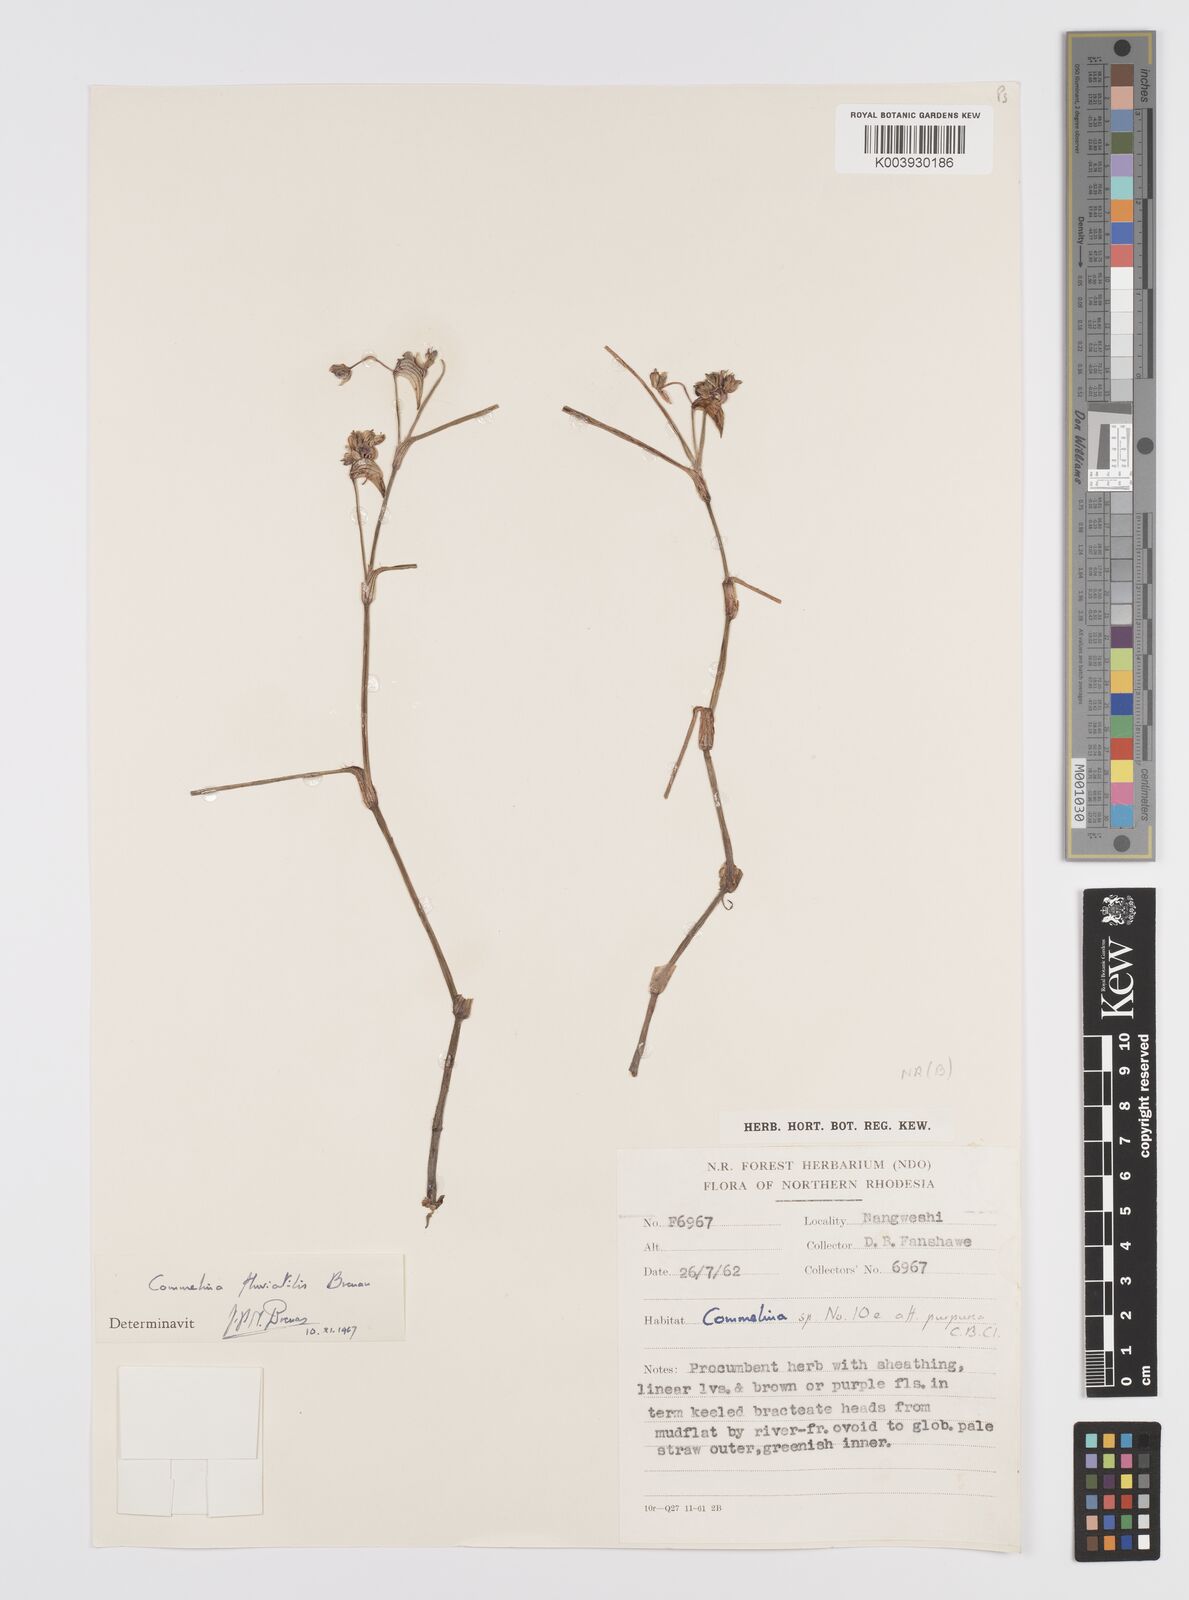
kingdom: Plantae
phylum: Tracheophyta
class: Liliopsida
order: Commelinales
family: Commelinaceae
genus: Commelina
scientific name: Commelina fluviatilis
